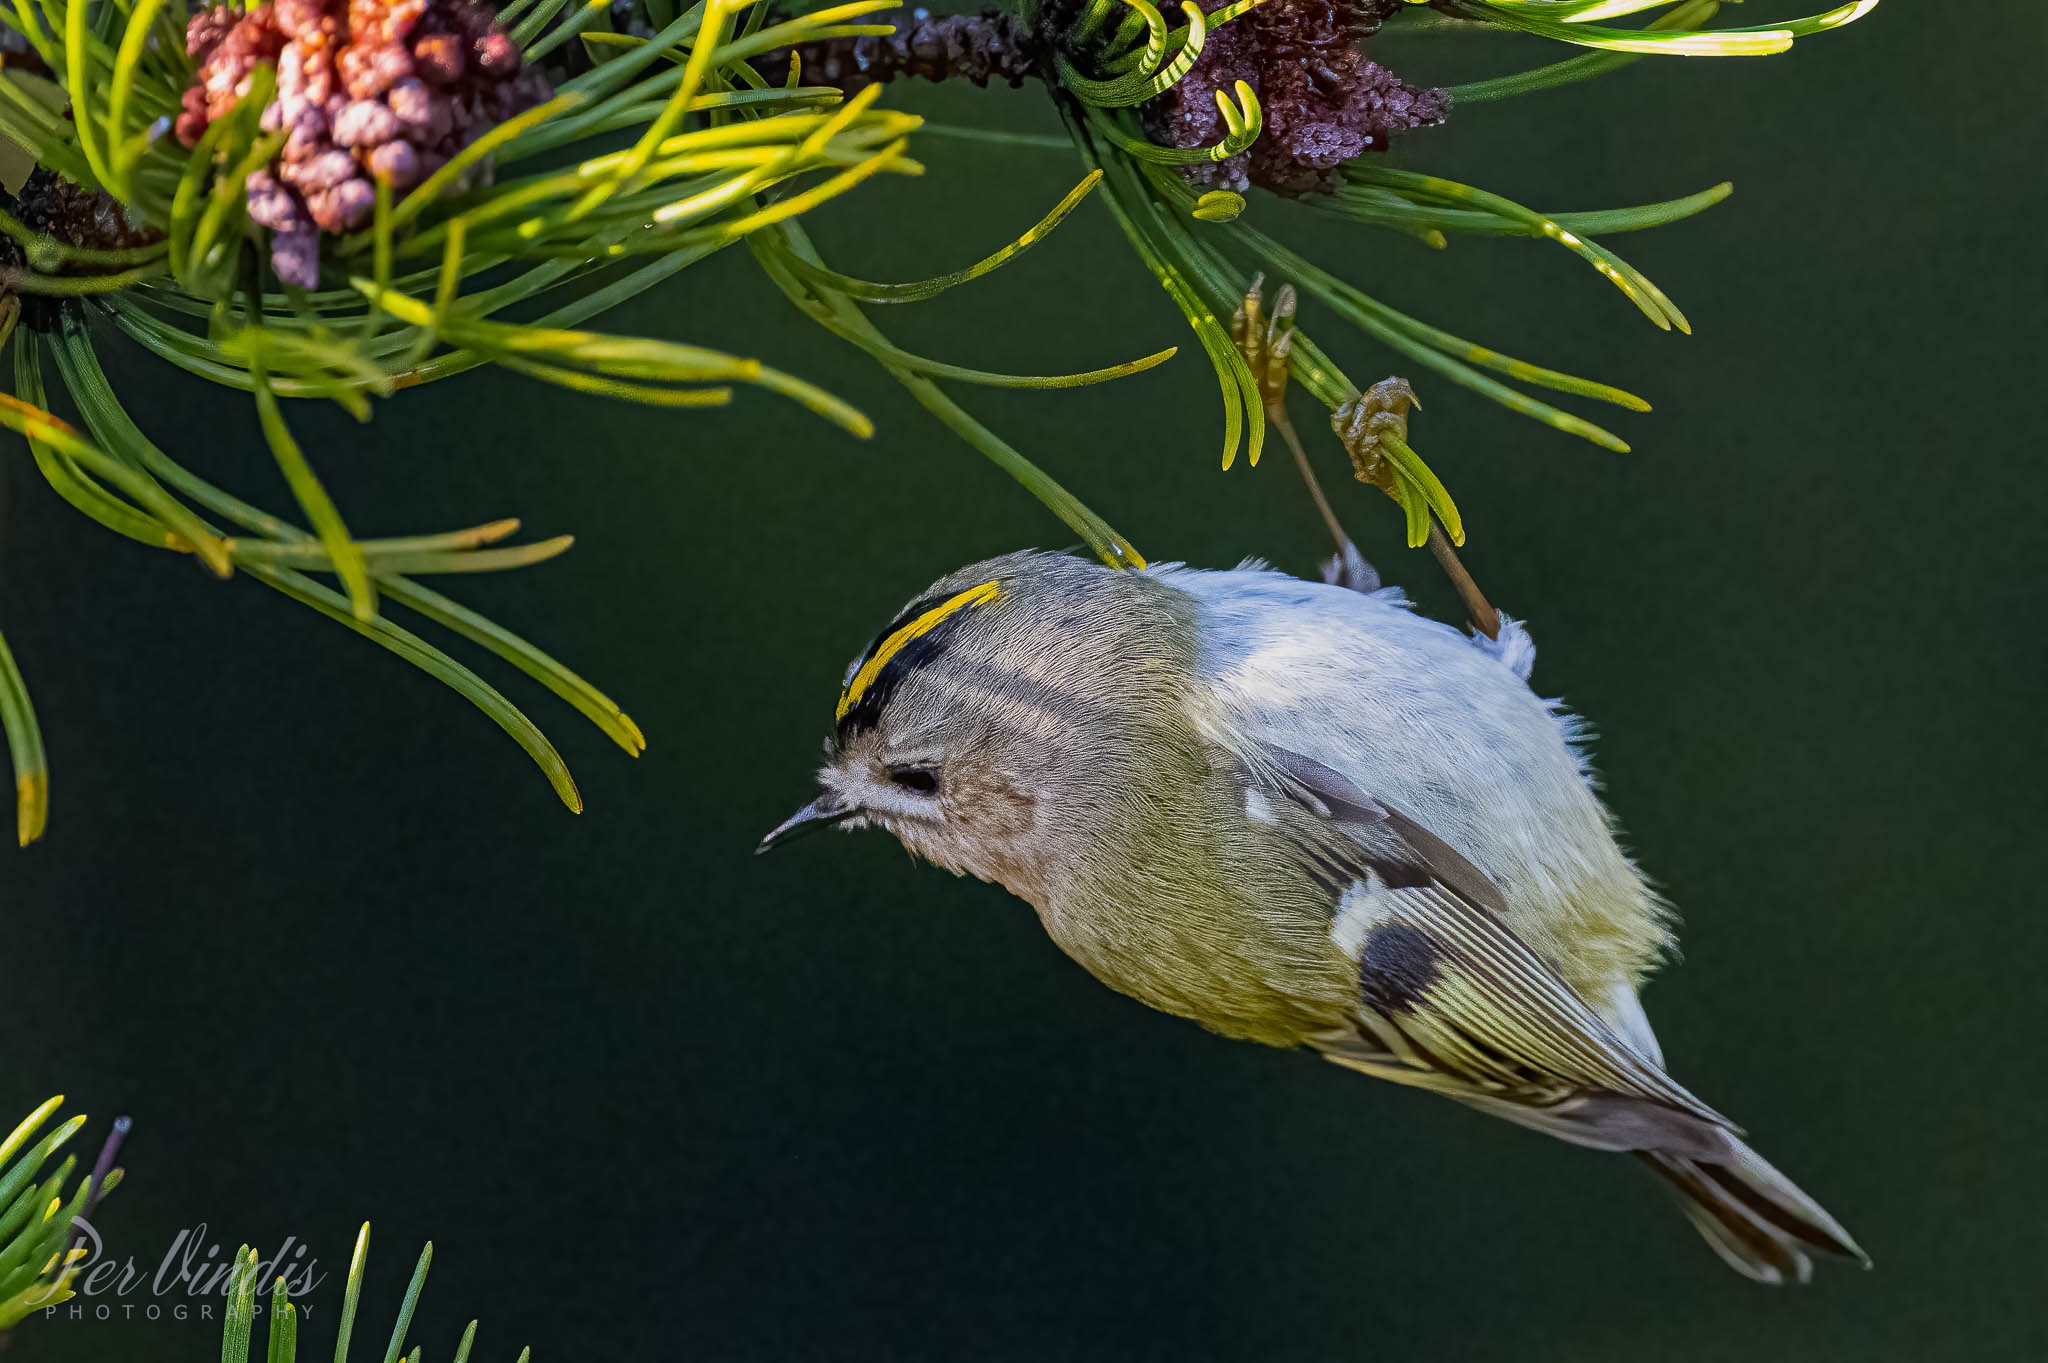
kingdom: Animalia
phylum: Chordata
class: Aves
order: Passeriformes
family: Regulidae
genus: Regulus
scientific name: Regulus regulus
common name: Fuglekonge
